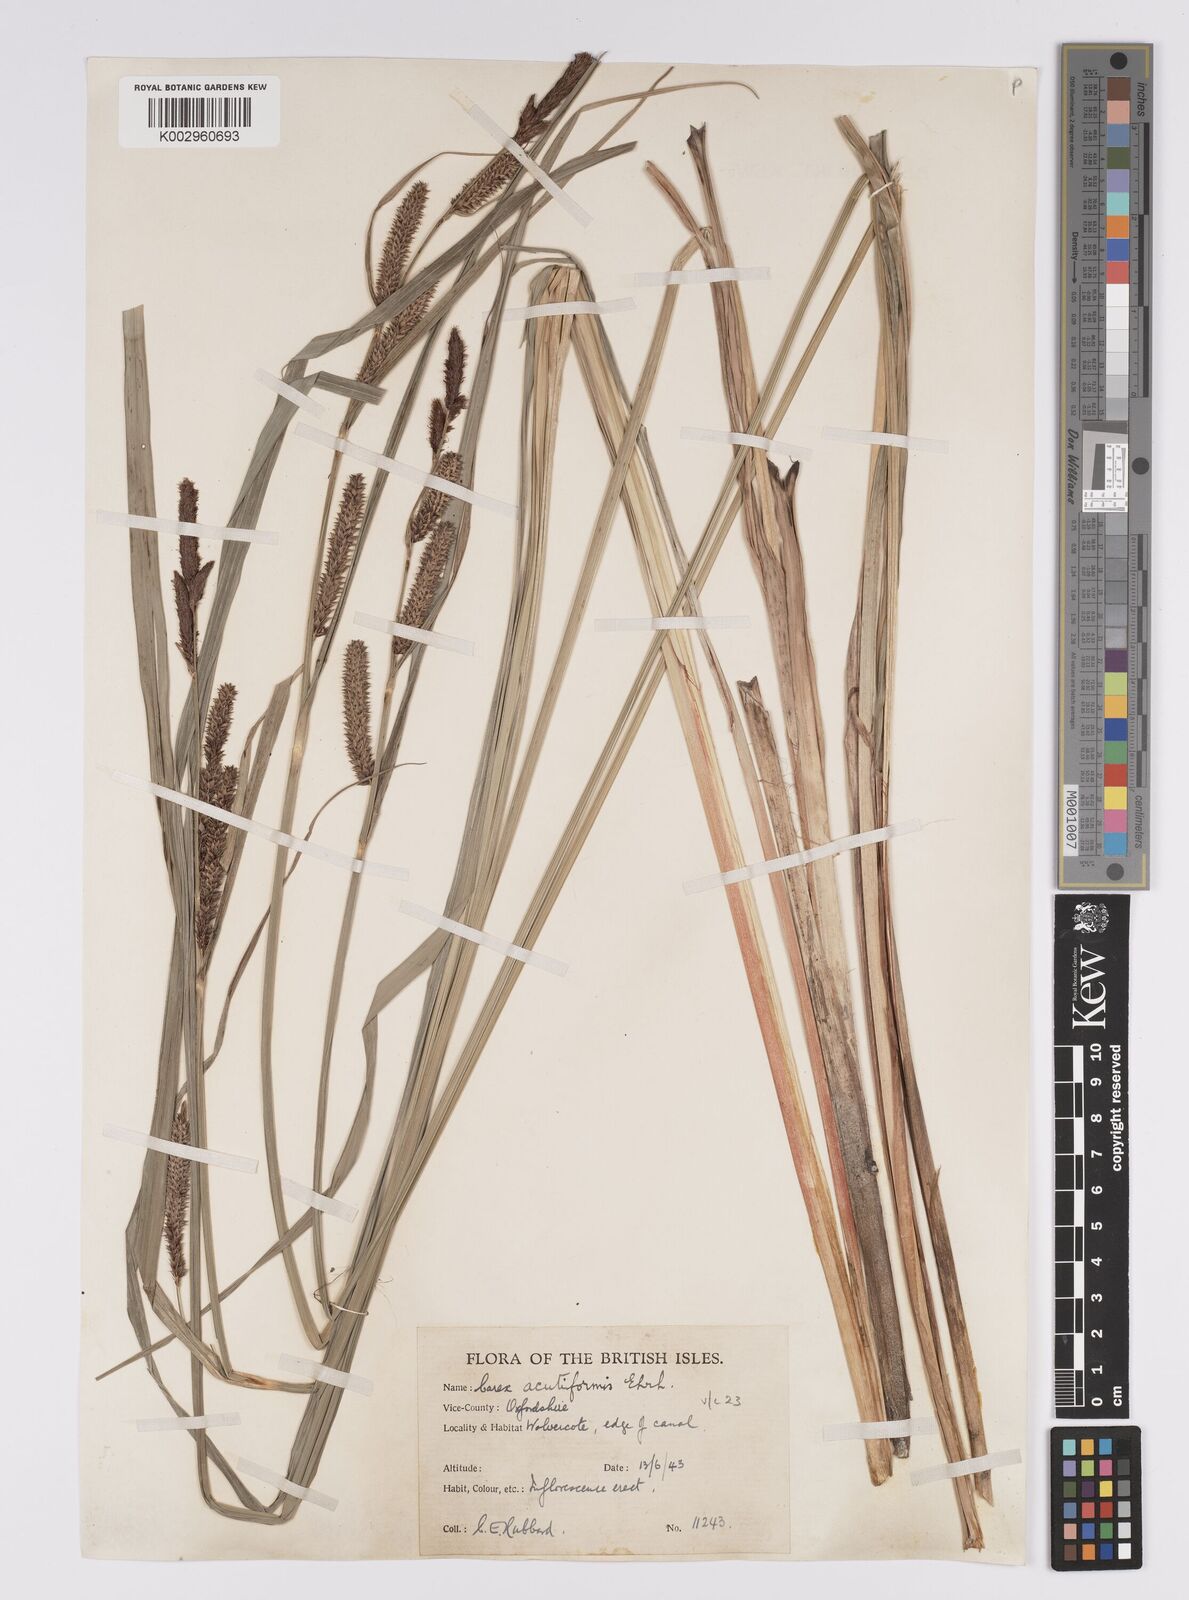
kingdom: Plantae
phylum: Tracheophyta
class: Liliopsida
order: Poales
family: Cyperaceae
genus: Carex
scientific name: Carex acutiformis
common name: Lesser pond-sedge
